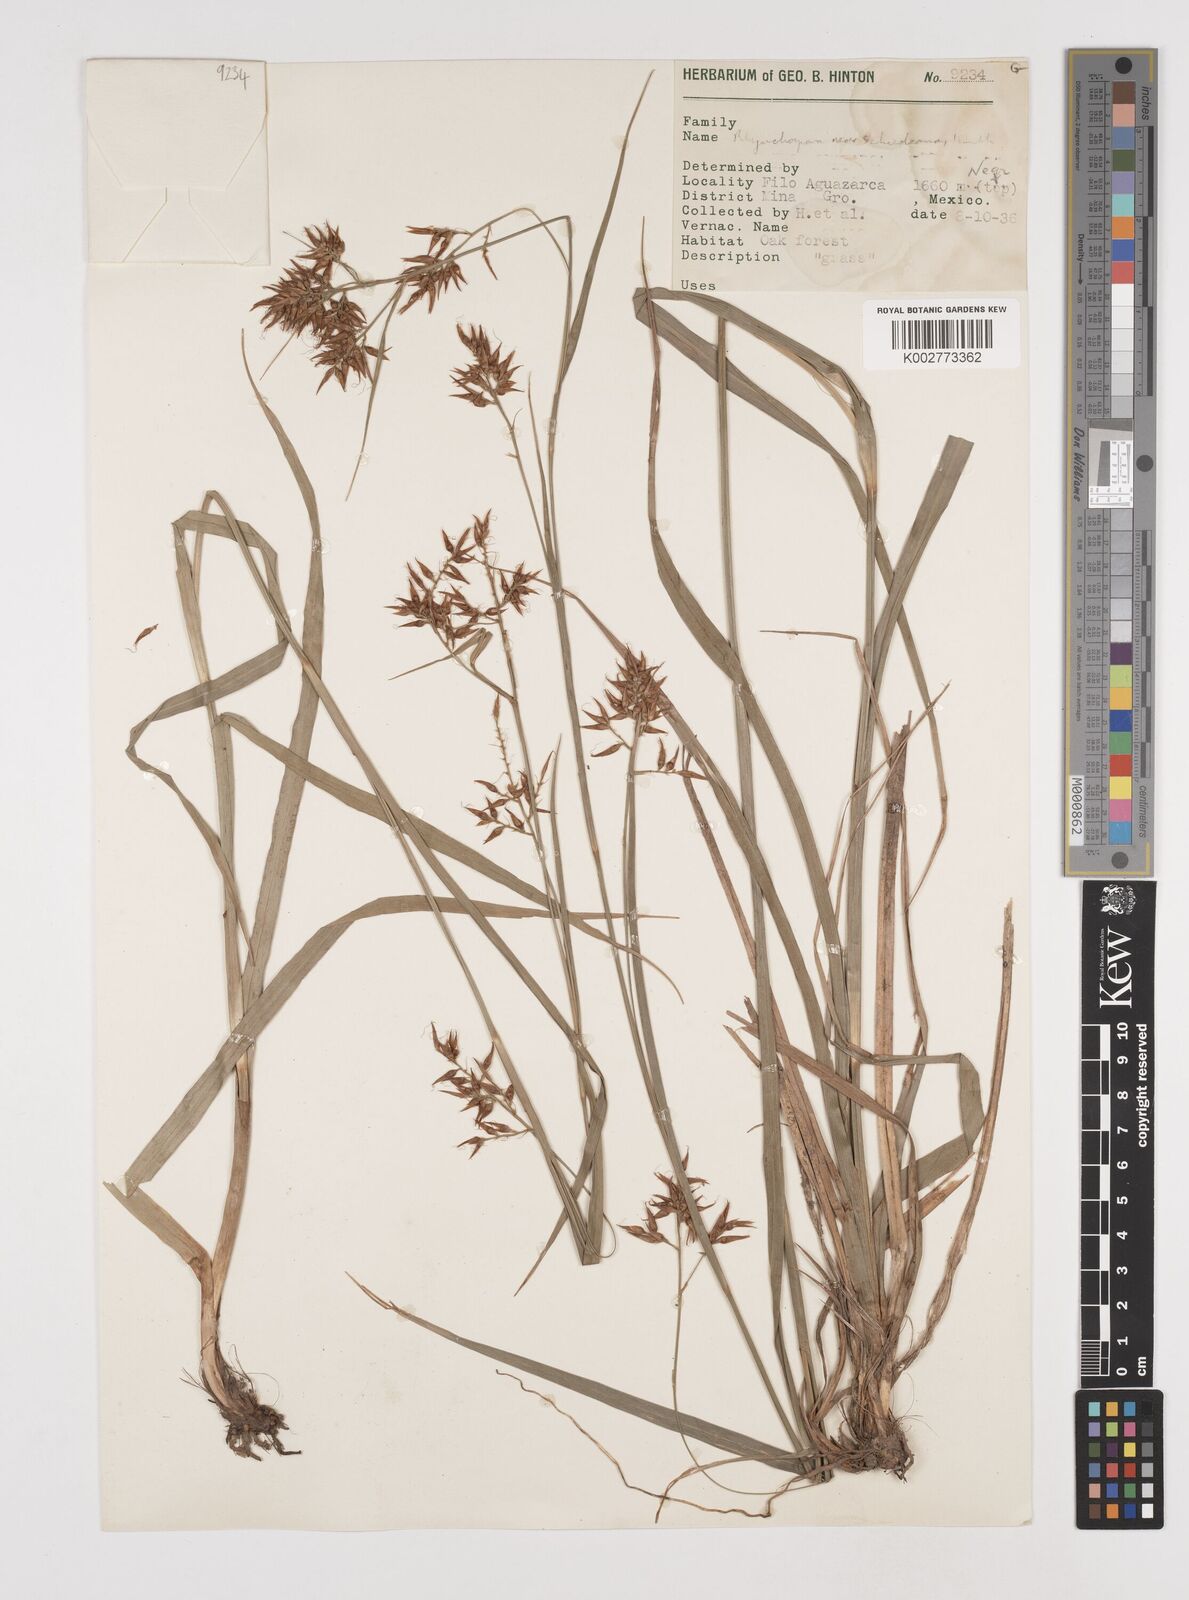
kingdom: Plantae
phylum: Tracheophyta
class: Liliopsida
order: Poales
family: Cyperaceae
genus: Rhynchospora
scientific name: Rhynchospora schiedeana
